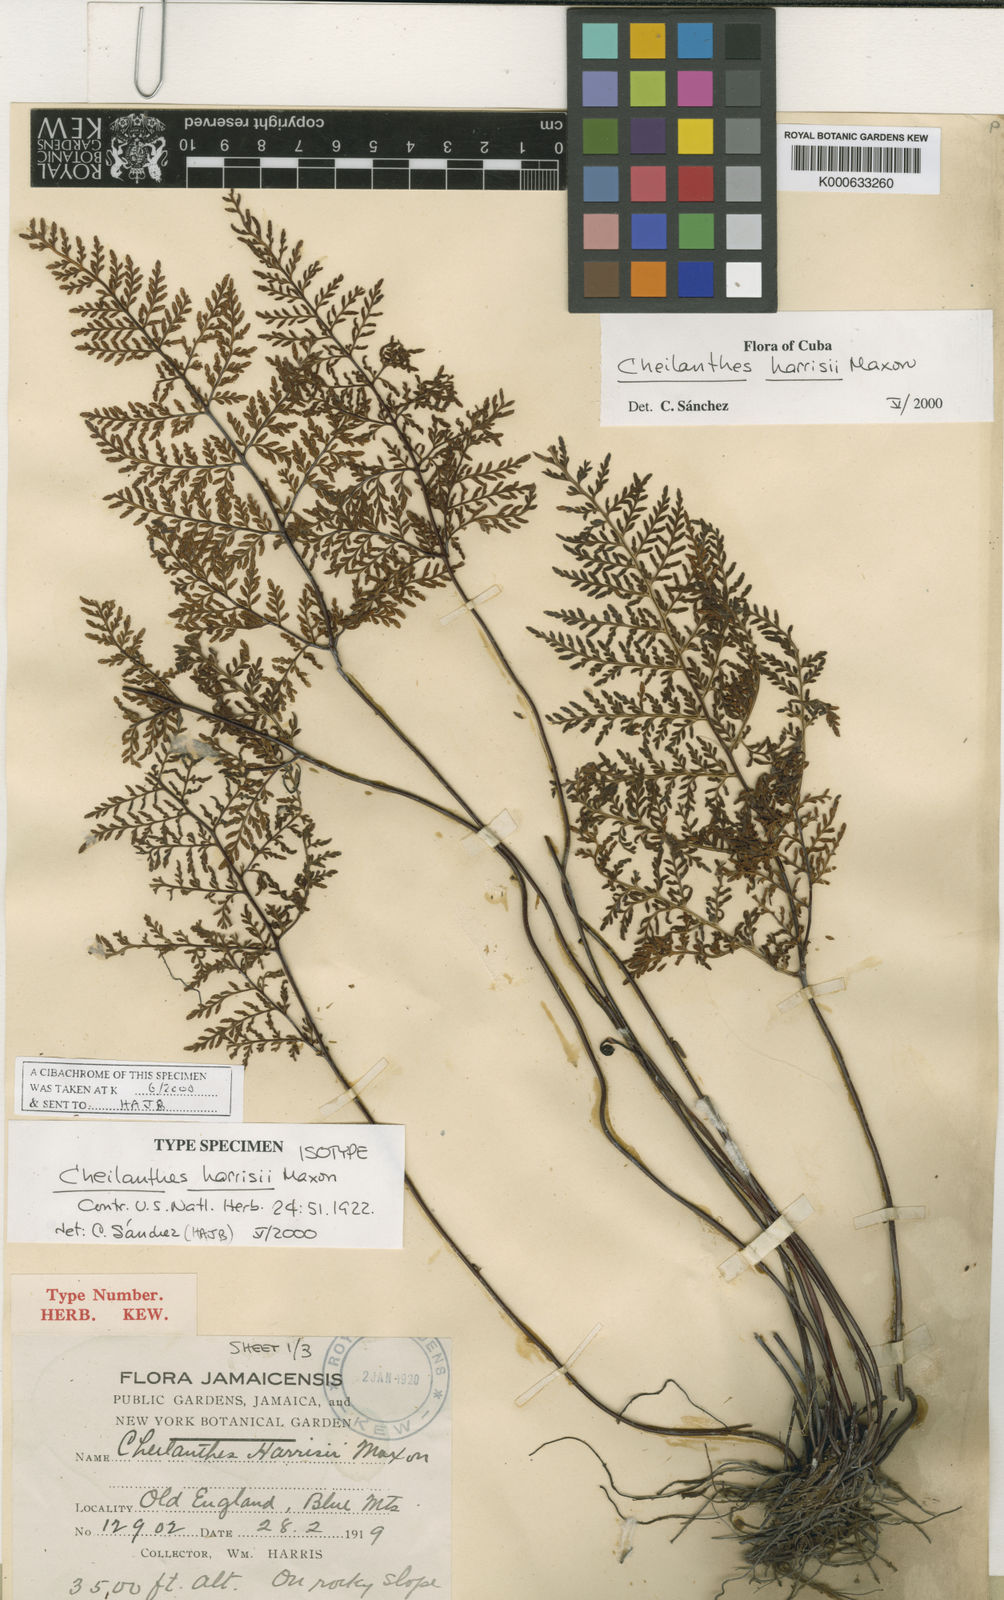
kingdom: Plantae
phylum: Tracheophyta
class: Polypodiopsida
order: Polypodiales
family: Pteridaceae
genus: Gaga
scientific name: Gaga harrisii
